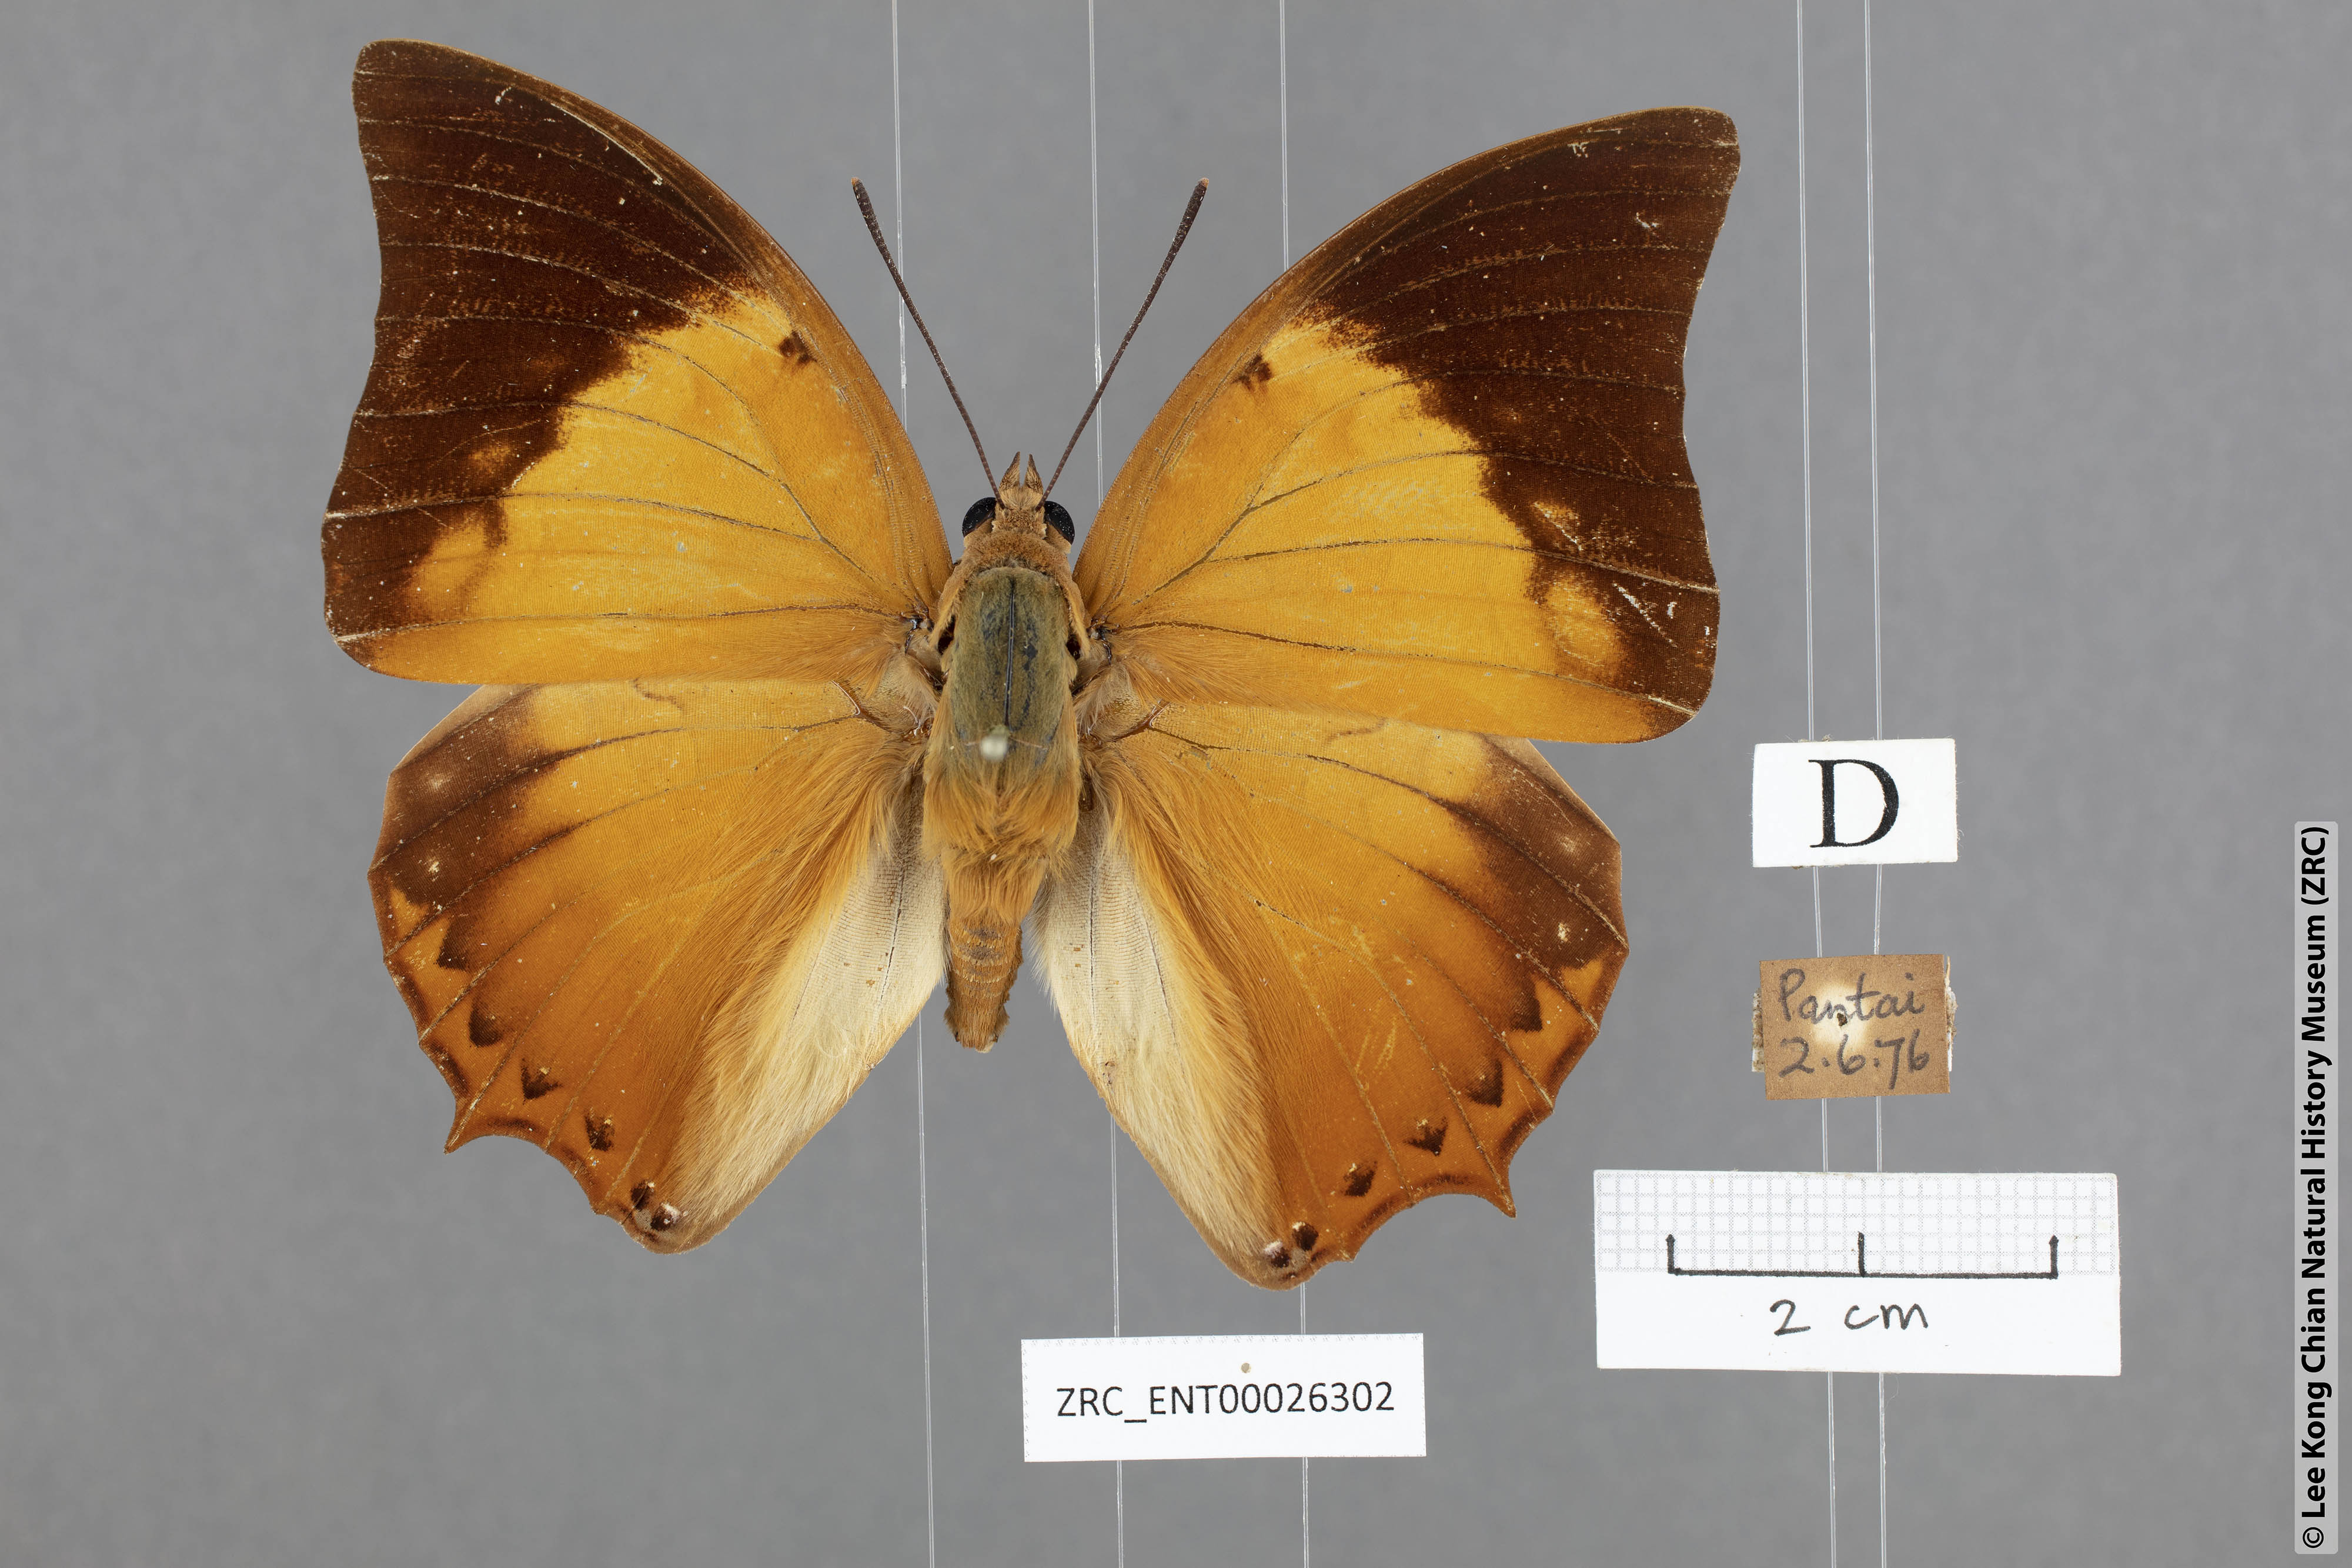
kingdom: Animalia
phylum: Arthropoda
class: Insecta
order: Lepidoptera
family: Nymphalidae
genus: Charaxes
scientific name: Charaxes bernardus
